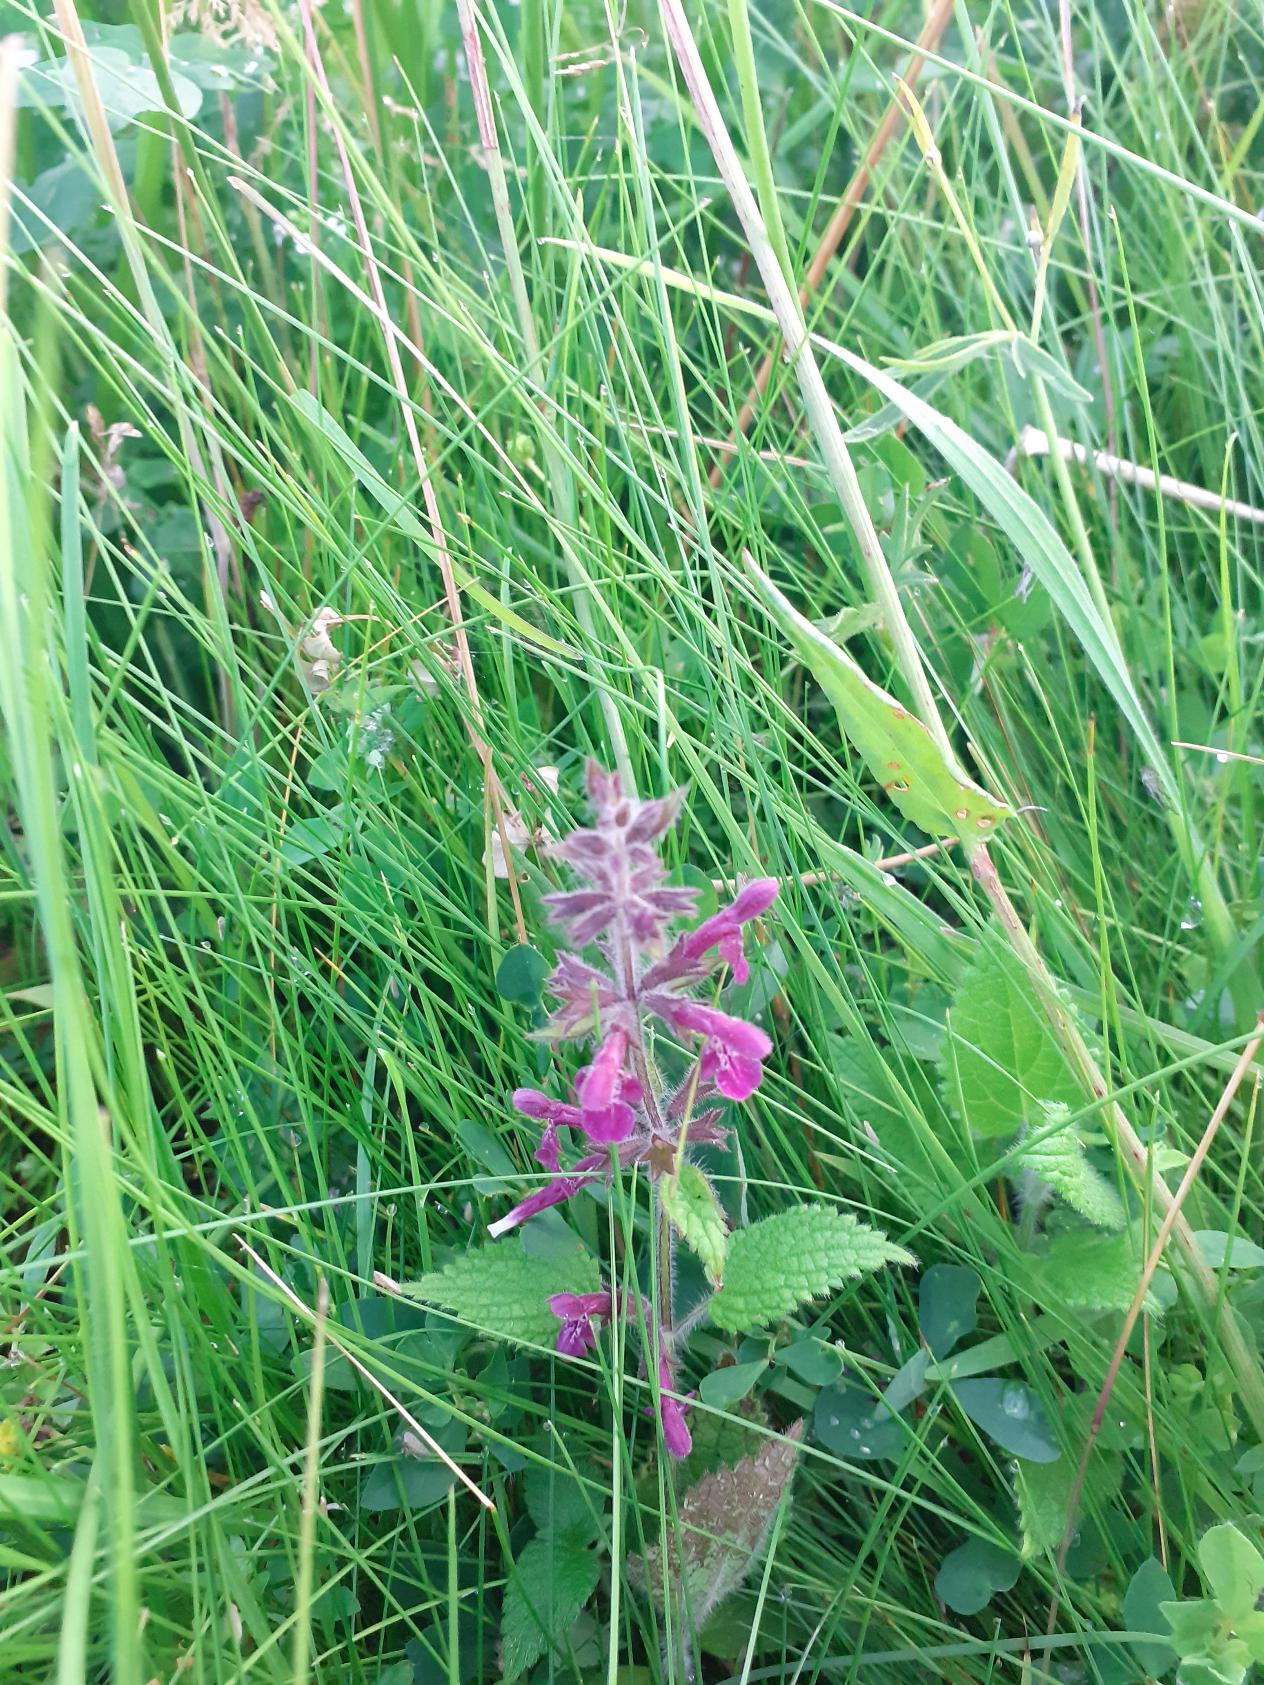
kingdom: Plantae
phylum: Tracheophyta
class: Magnoliopsida
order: Lamiales
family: Lamiaceae
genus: Stachys
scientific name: Stachys sylvatica
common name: Skov-galtetand
